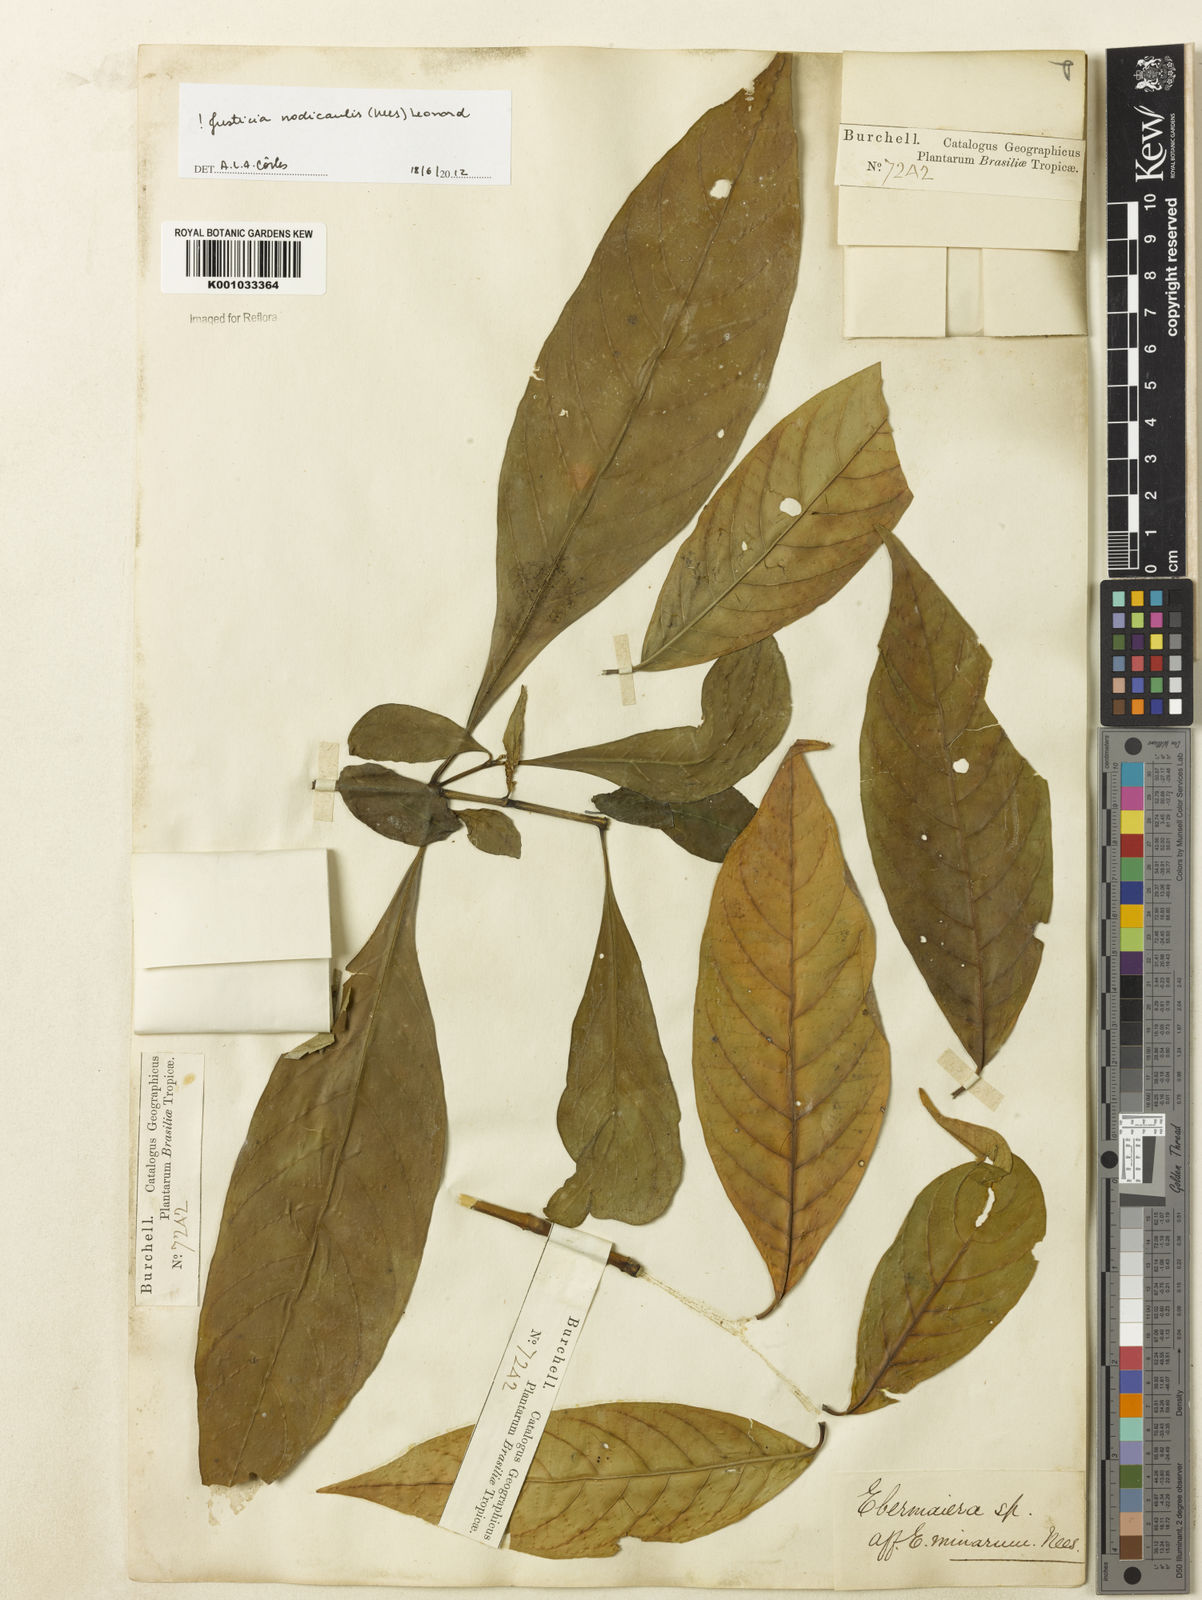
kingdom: Plantae
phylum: Tracheophyta
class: Magnoliopsida
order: Lamiales
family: Acanthaceae
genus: Justicia
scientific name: Justicia nodicaulis
